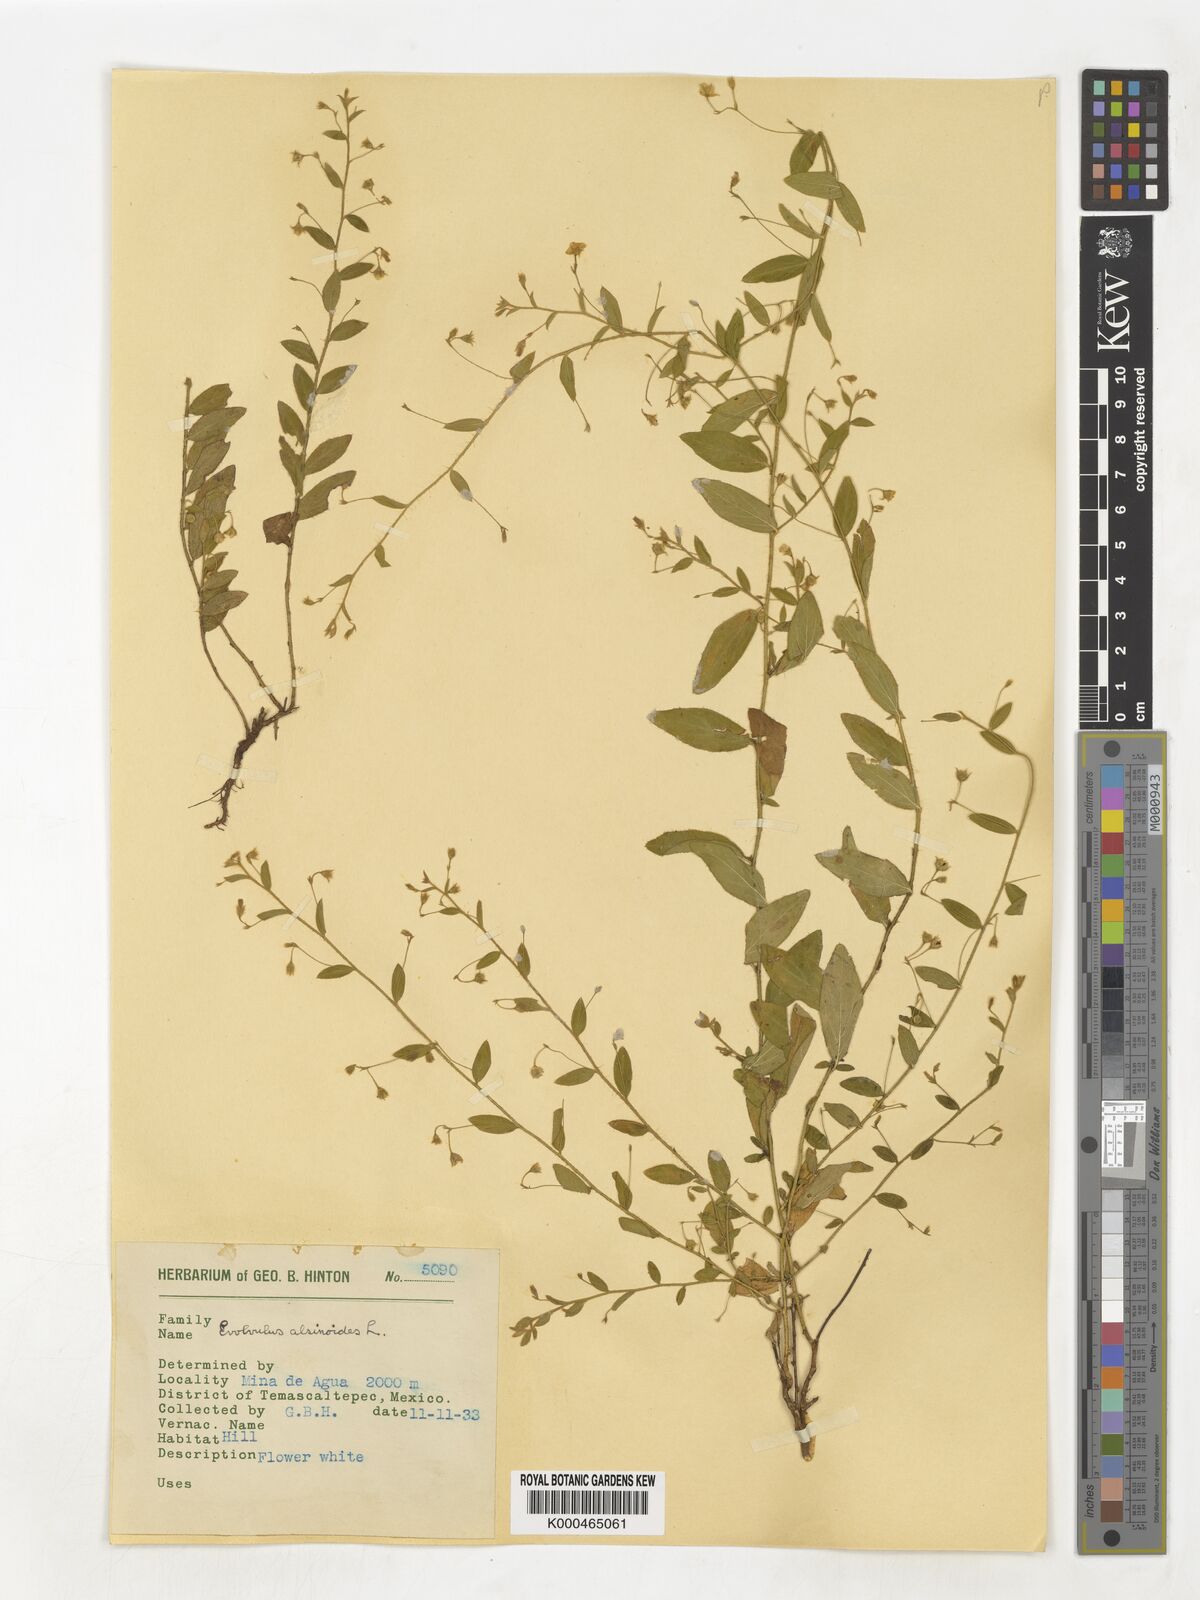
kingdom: Plantae
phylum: Tracheophyta
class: Magnoliopsida
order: Solanales
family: Convolvulaceae
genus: Evolvulus
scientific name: Evolvulus alsinoides
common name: Slender dwarf morning-glory
